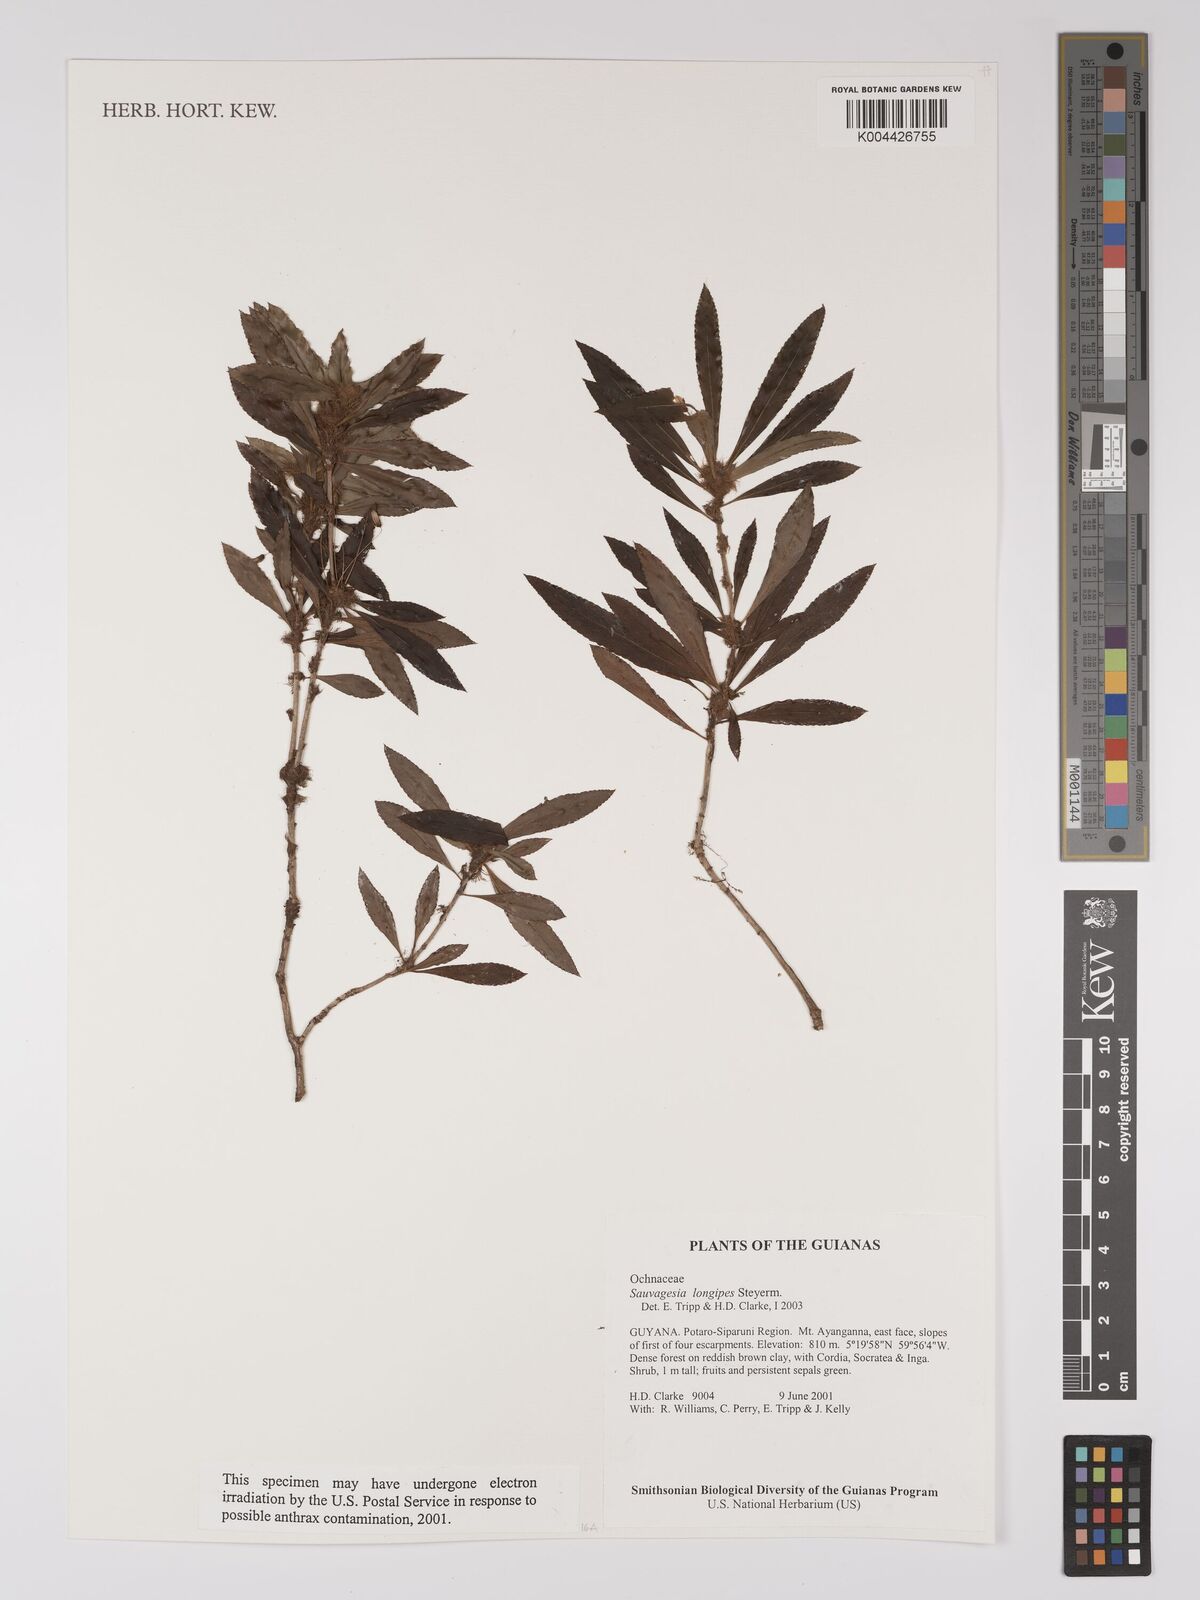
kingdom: Plantae
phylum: Tracheophyta
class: Magnoliopsida
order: Malpighiales
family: Ochnaceae
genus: Sauvagesia
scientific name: Sauvagesia longipes
